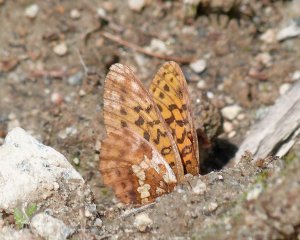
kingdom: Animalia
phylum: Arthropoda
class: Insecta
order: Lepidoptera
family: Nymphalidae
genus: Boloria
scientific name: Boloria epithore
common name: Pacific Fritillary
